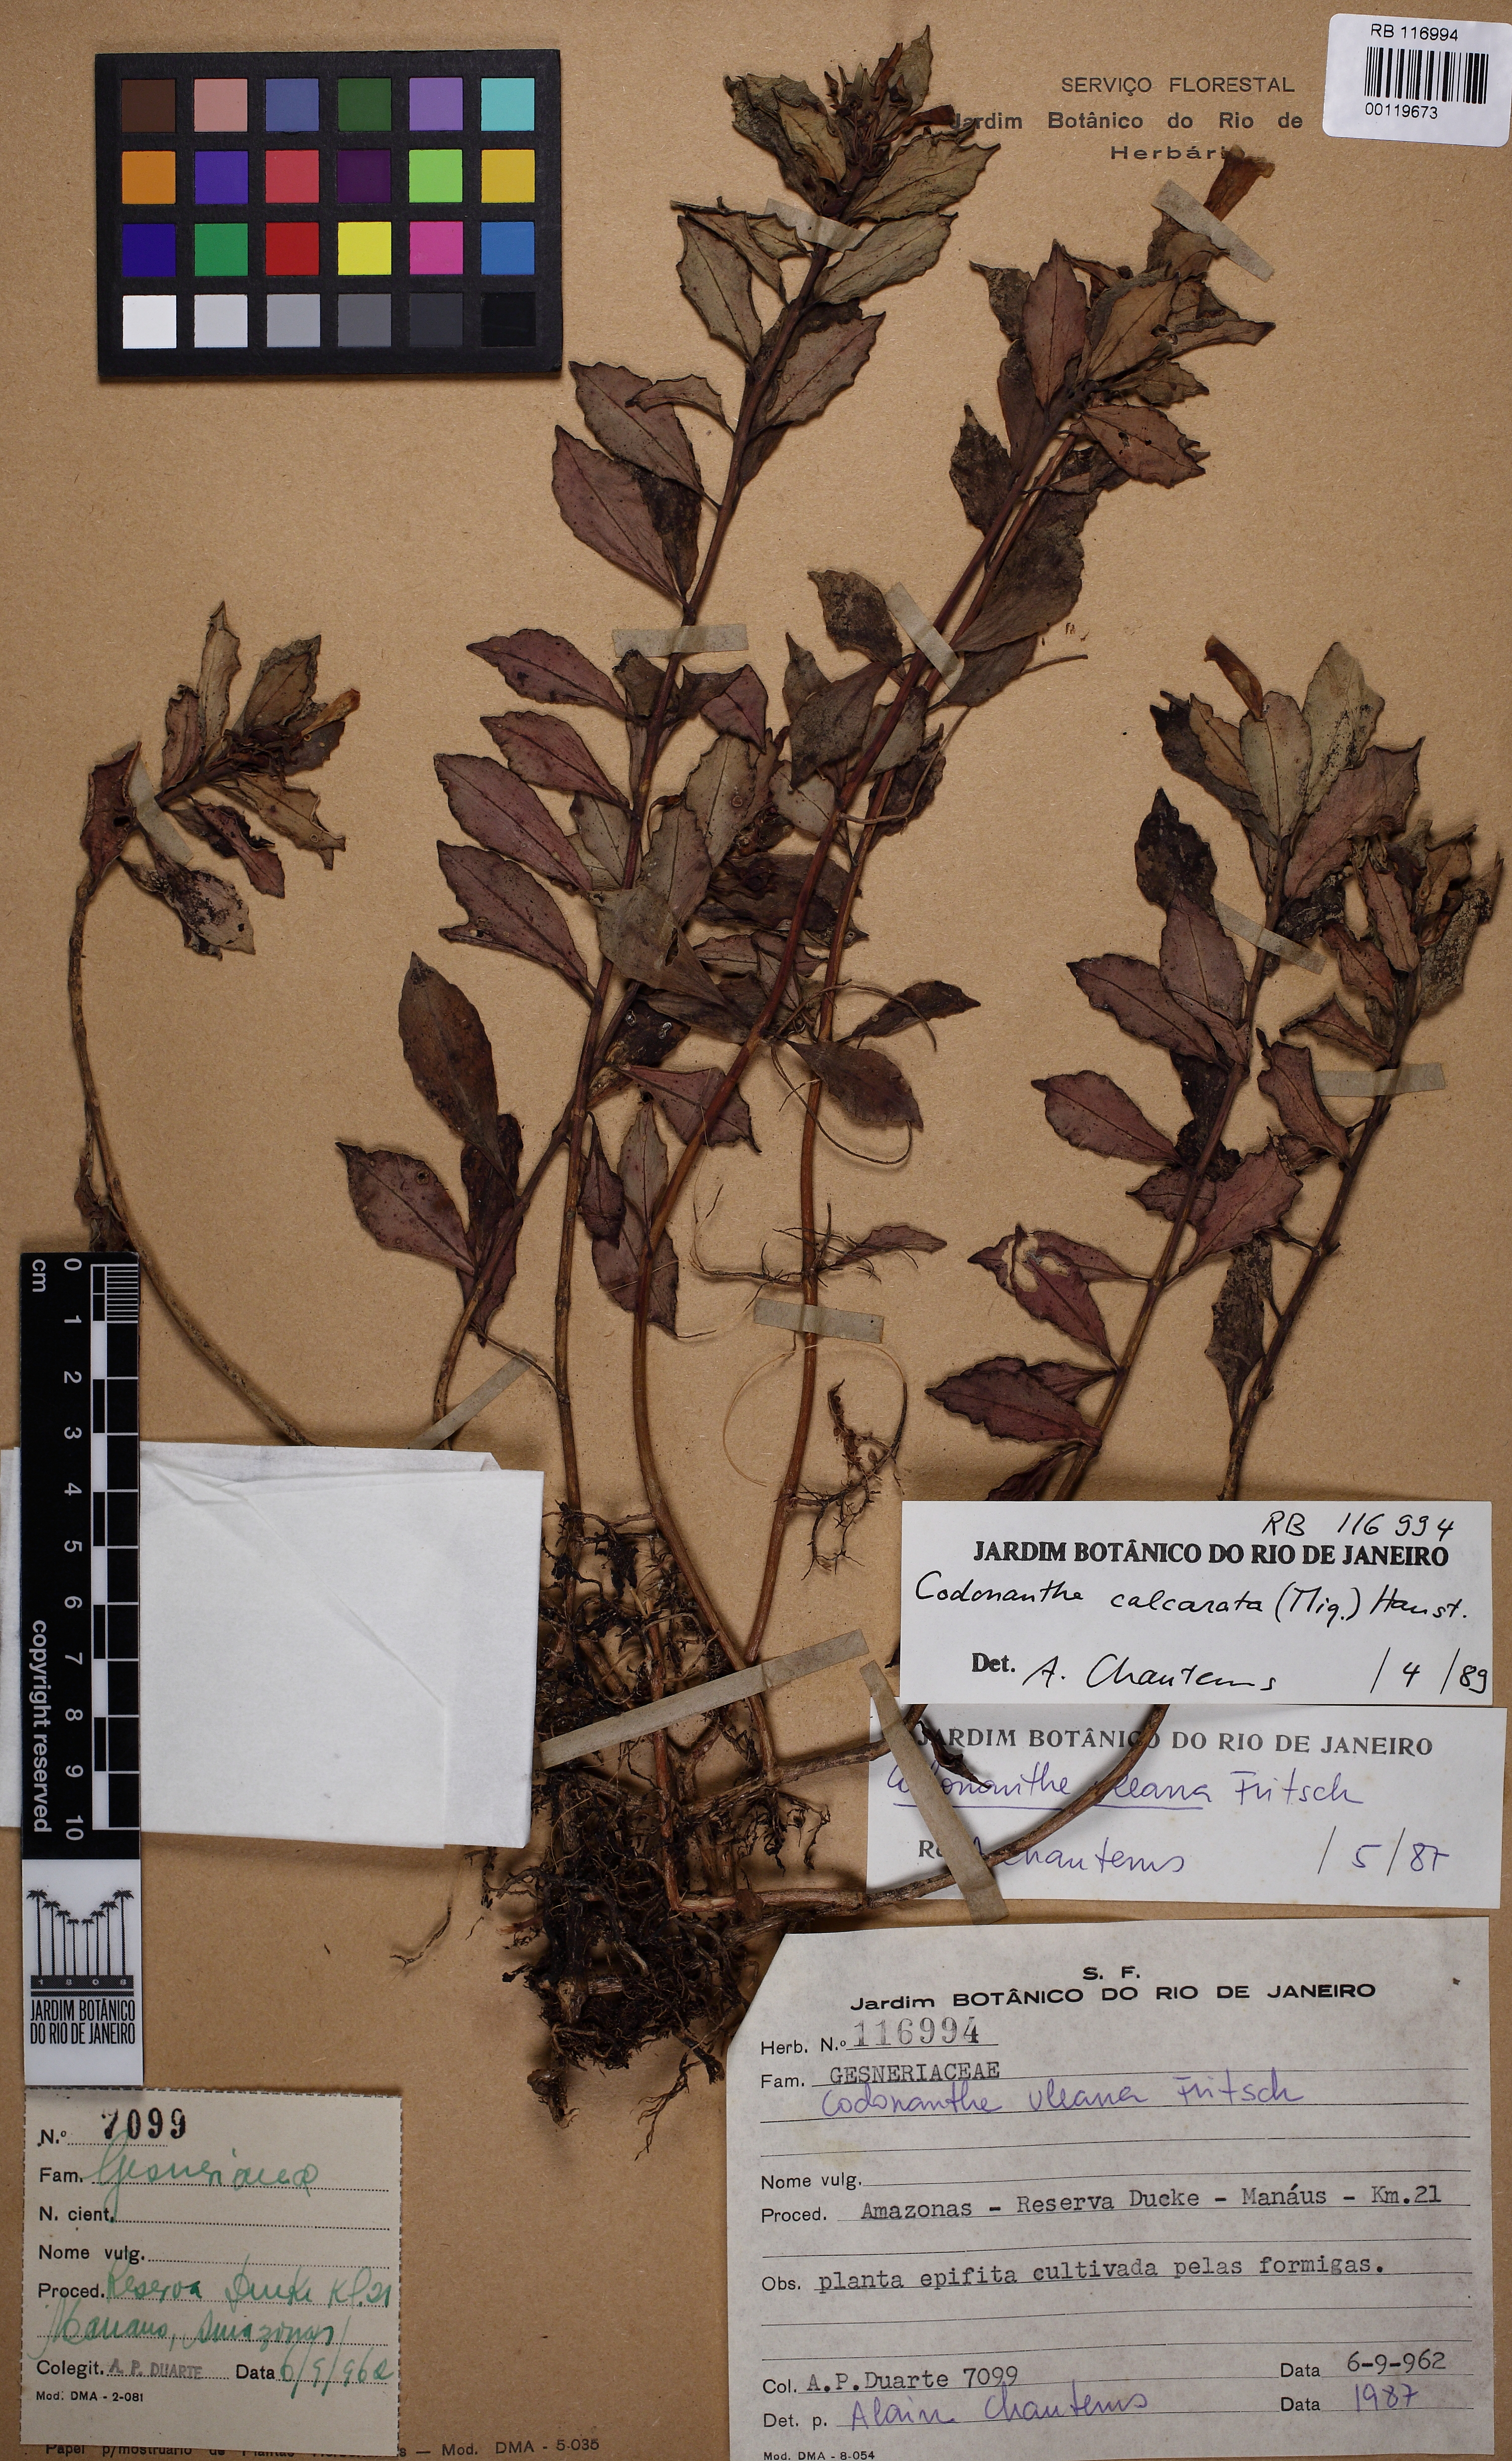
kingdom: Plantae
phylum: Tracheophyta
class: Magnoliopsida
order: Lamiales
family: Gesneriaceae
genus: Codonanthopsis
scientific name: Codonanthopsis calcarata
